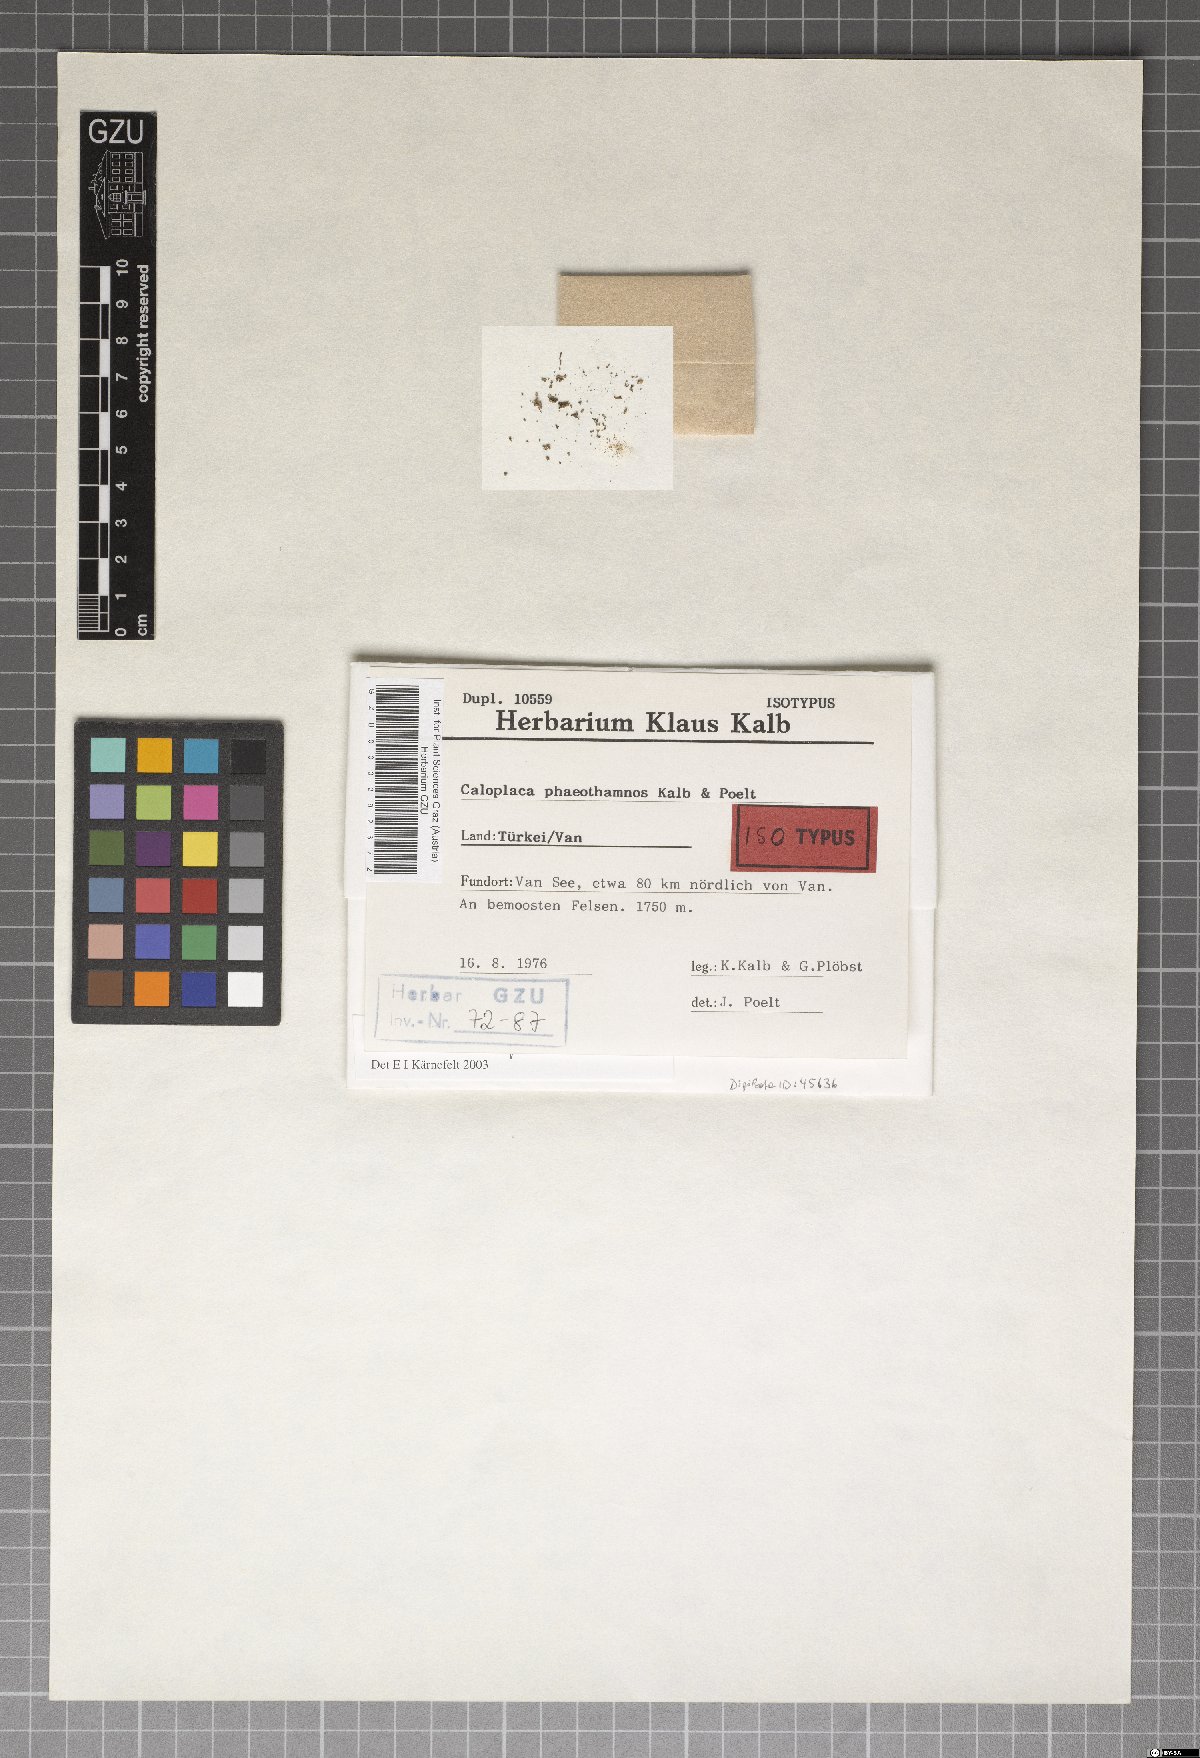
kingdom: Fungi
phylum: Ascomycota
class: Lecanoromycetes
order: Teloschistales
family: Teloschistaceae
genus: Pisutiella
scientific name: Pisutiella phaeothamnos
